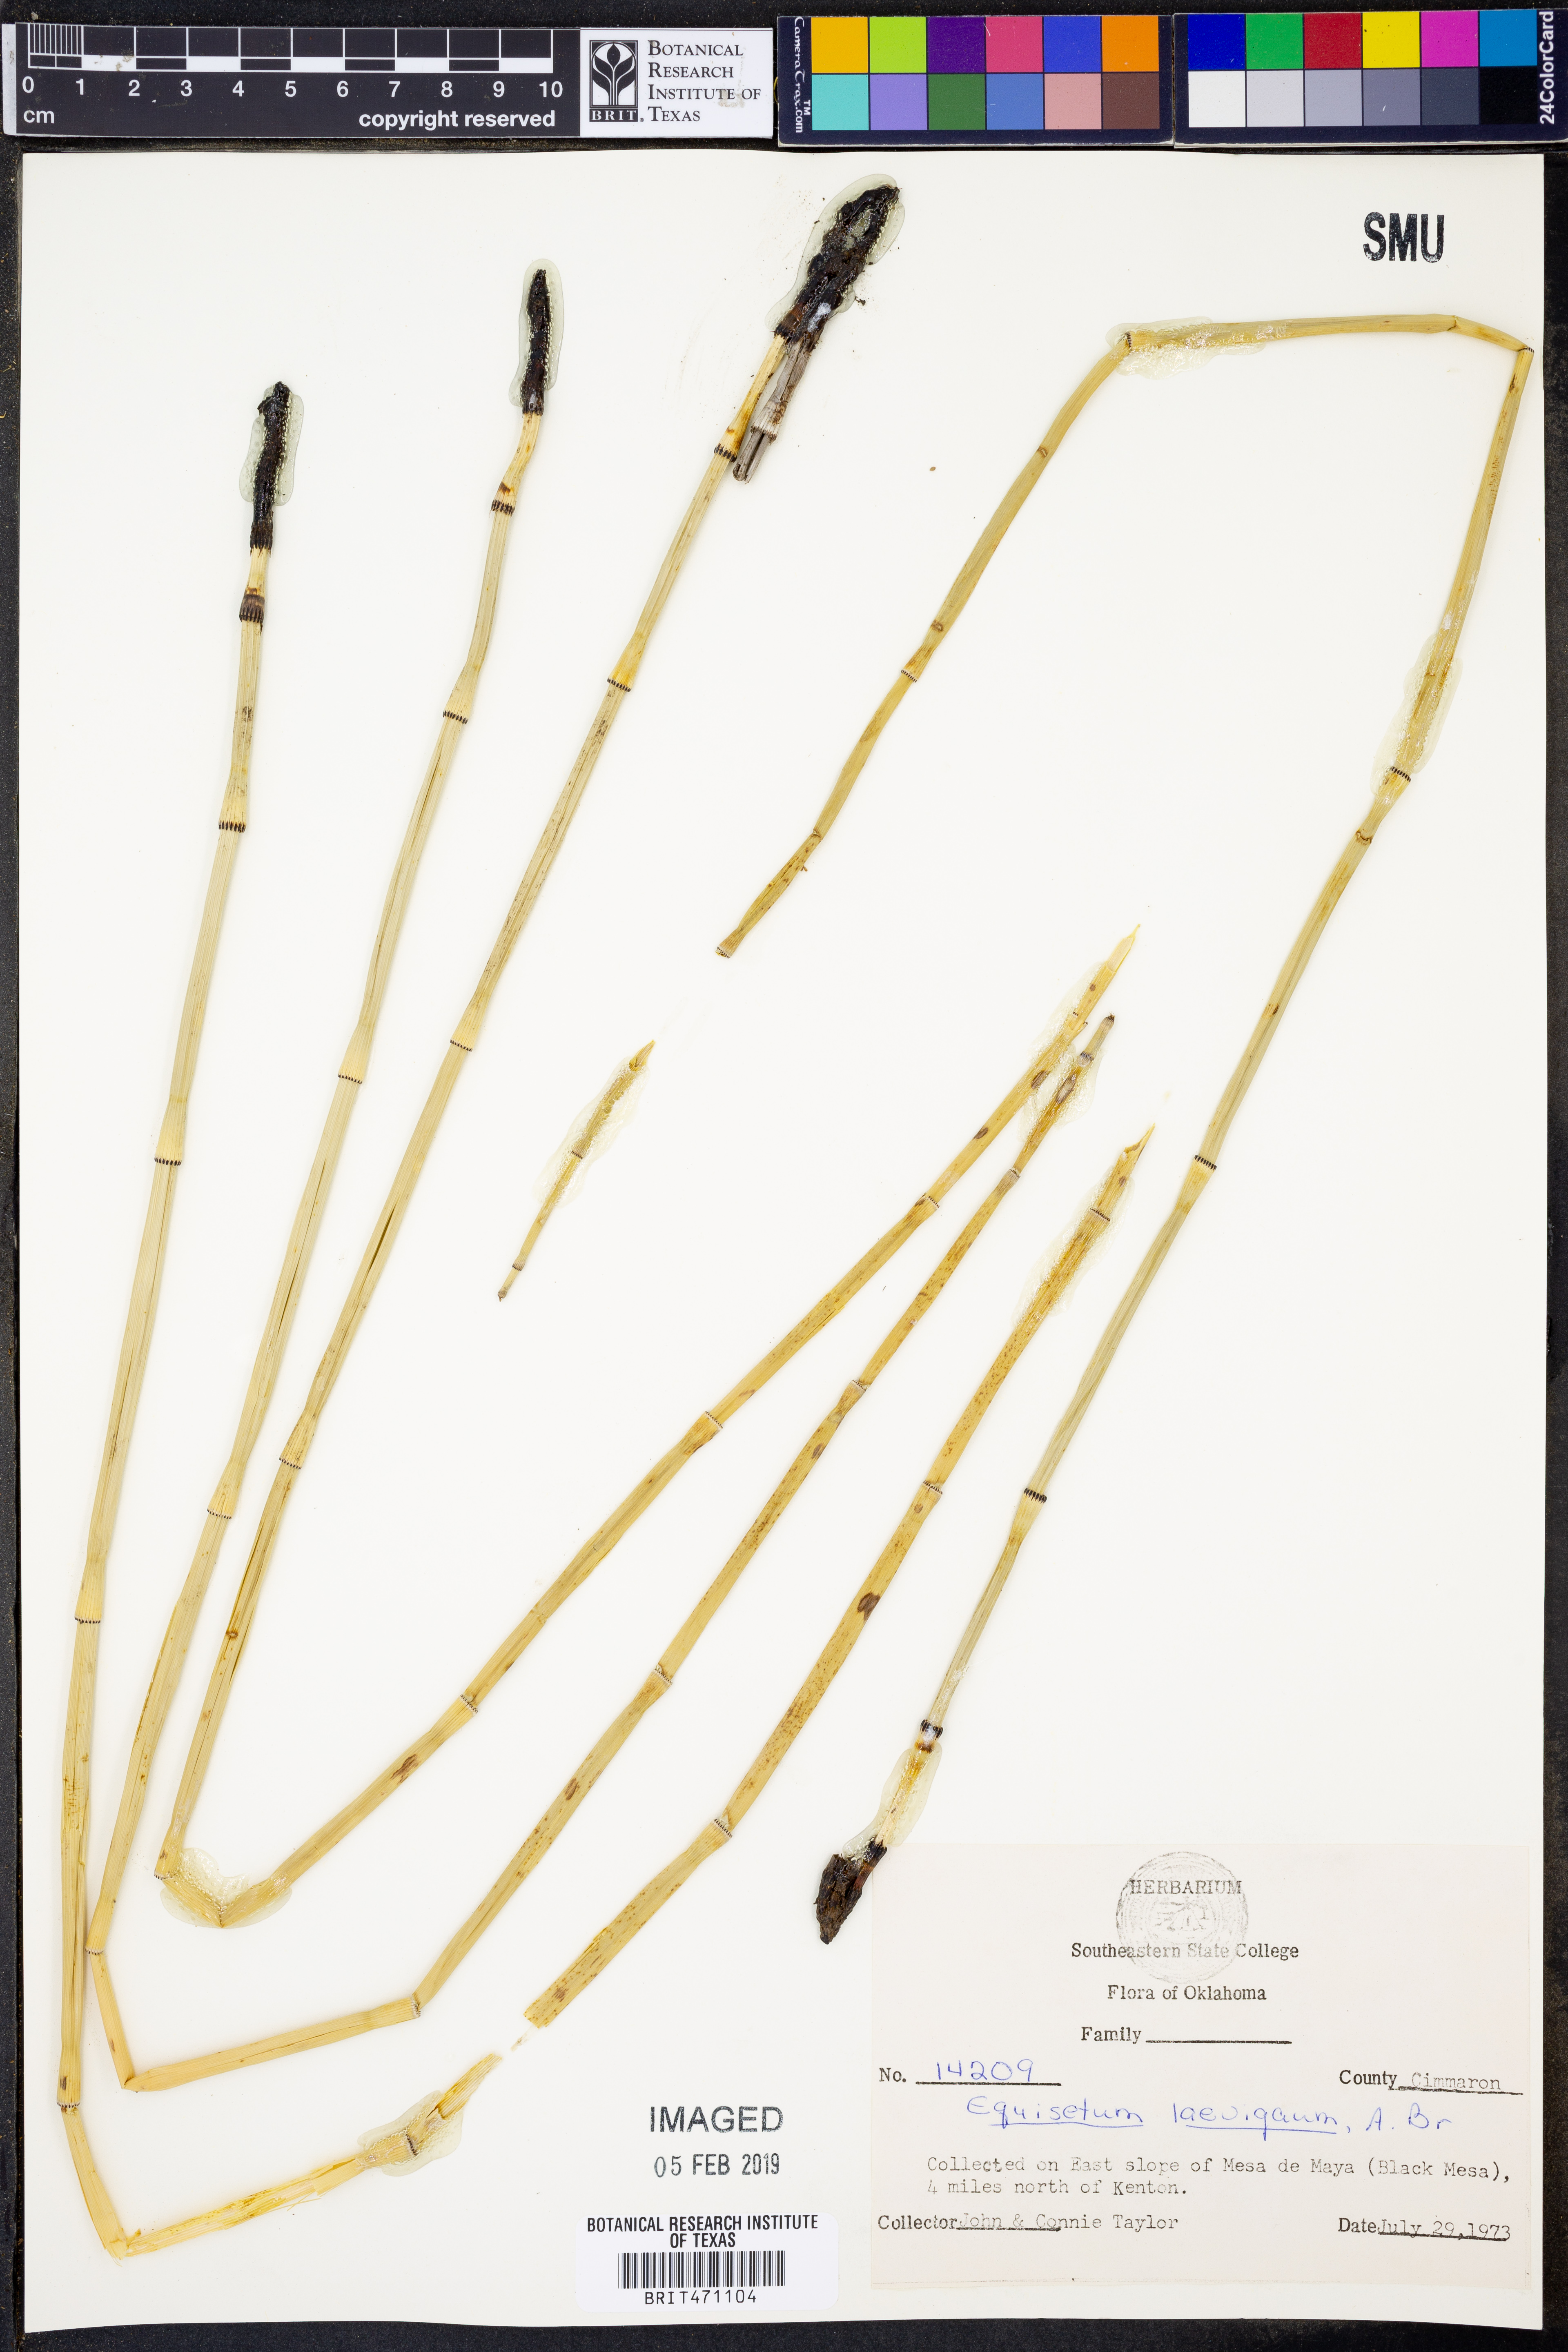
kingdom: Plantae
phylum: Tracheophyta
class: Polypodiopsida
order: Equisetales
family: Equisetaceae
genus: Equisetum
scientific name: Equisetum laevigatum
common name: Smooth scouring-rush
